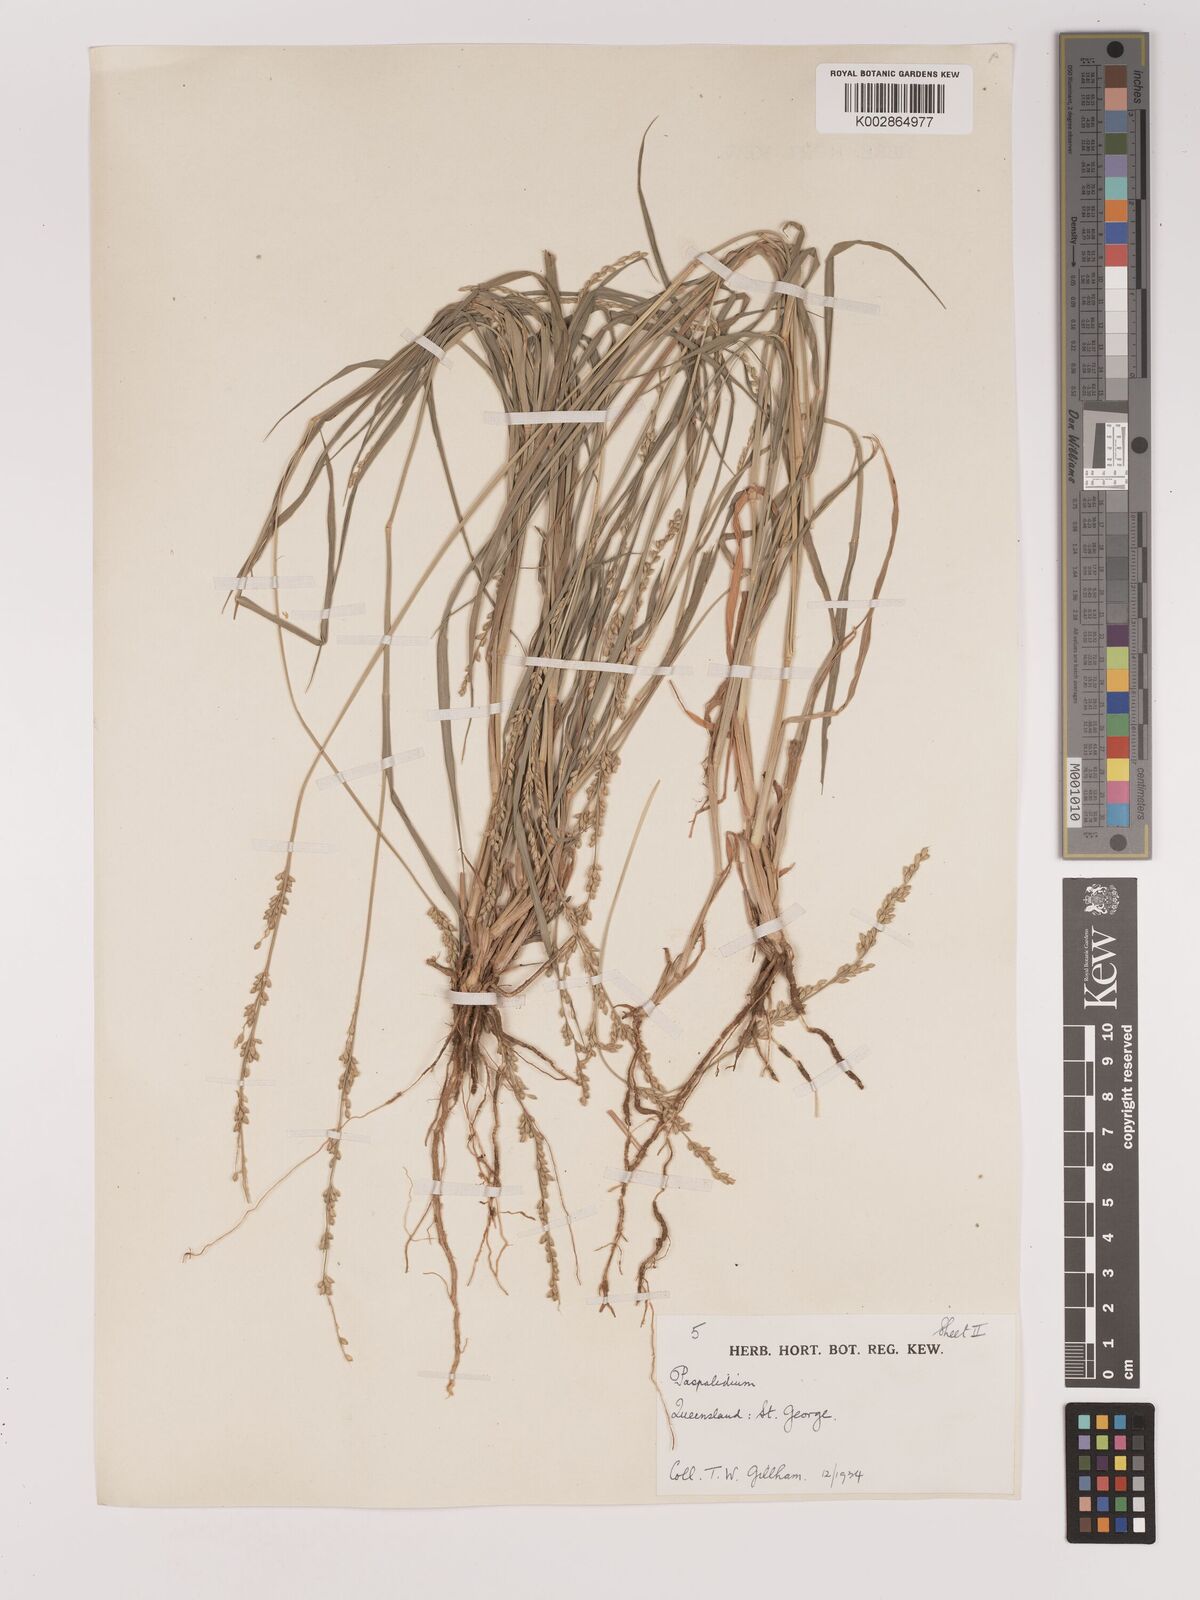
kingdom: Plantae
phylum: Tracheophyta
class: Liliopsida
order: Poales
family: Poaceae
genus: Setaria
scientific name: Setaria
